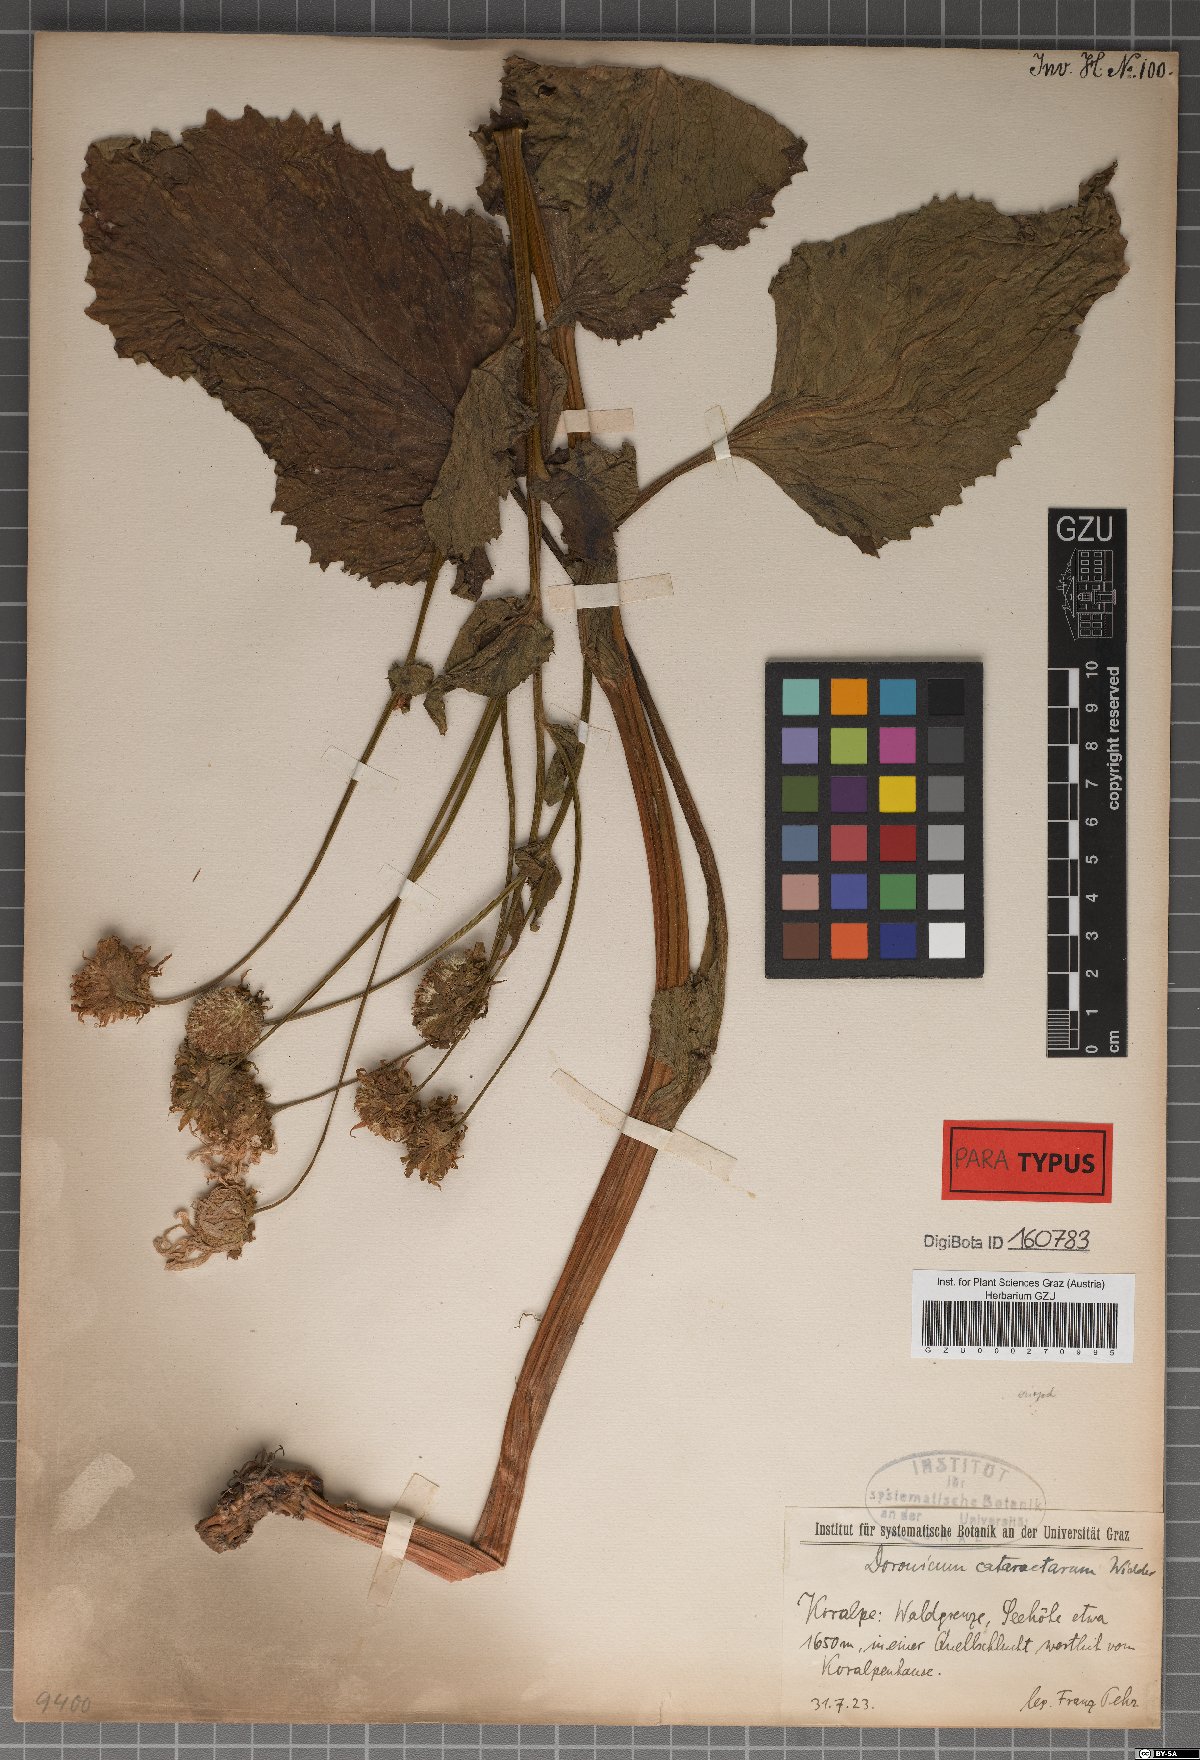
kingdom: Plantae
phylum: Tracheophyta
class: Magnoliopsida
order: Asterales
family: Asteraceae
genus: Doronicum
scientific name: Doronicum cataractarum
